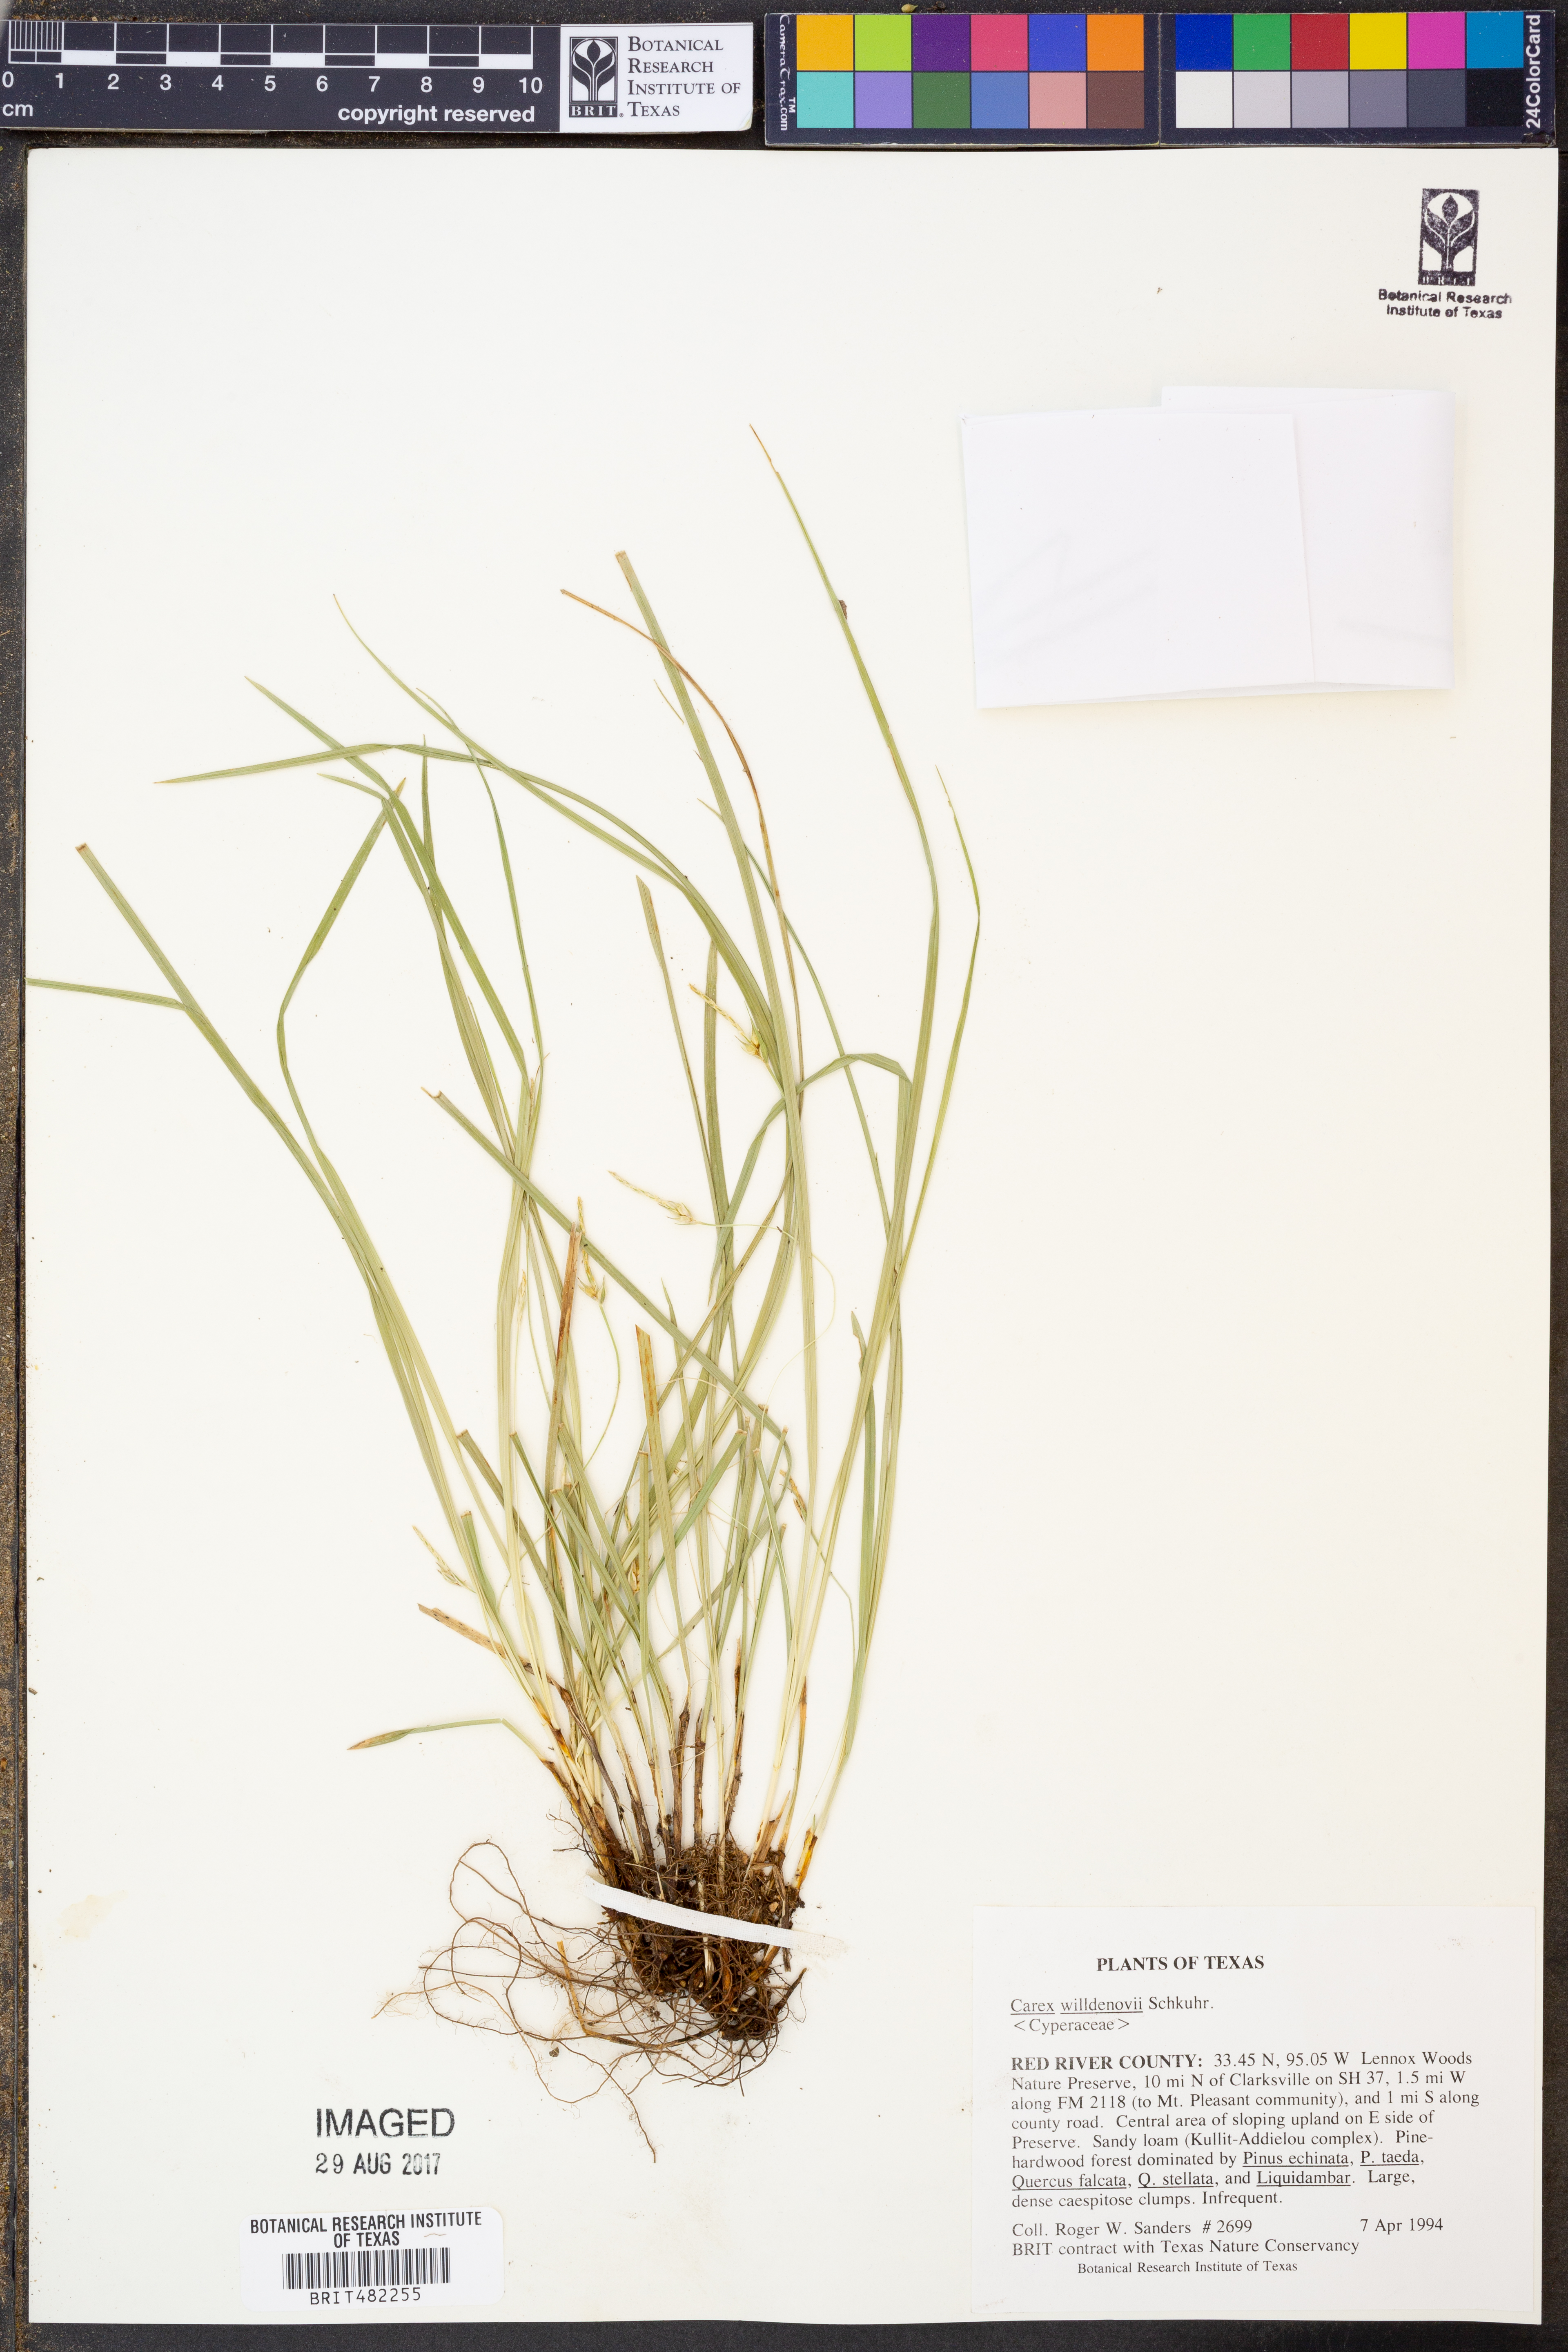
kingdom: Plantae
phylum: Tracheophyta
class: Liliopsida
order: Poales
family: Cyperaceae
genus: Carex
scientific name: Carex willdenowii
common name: Willdenow's sedge
